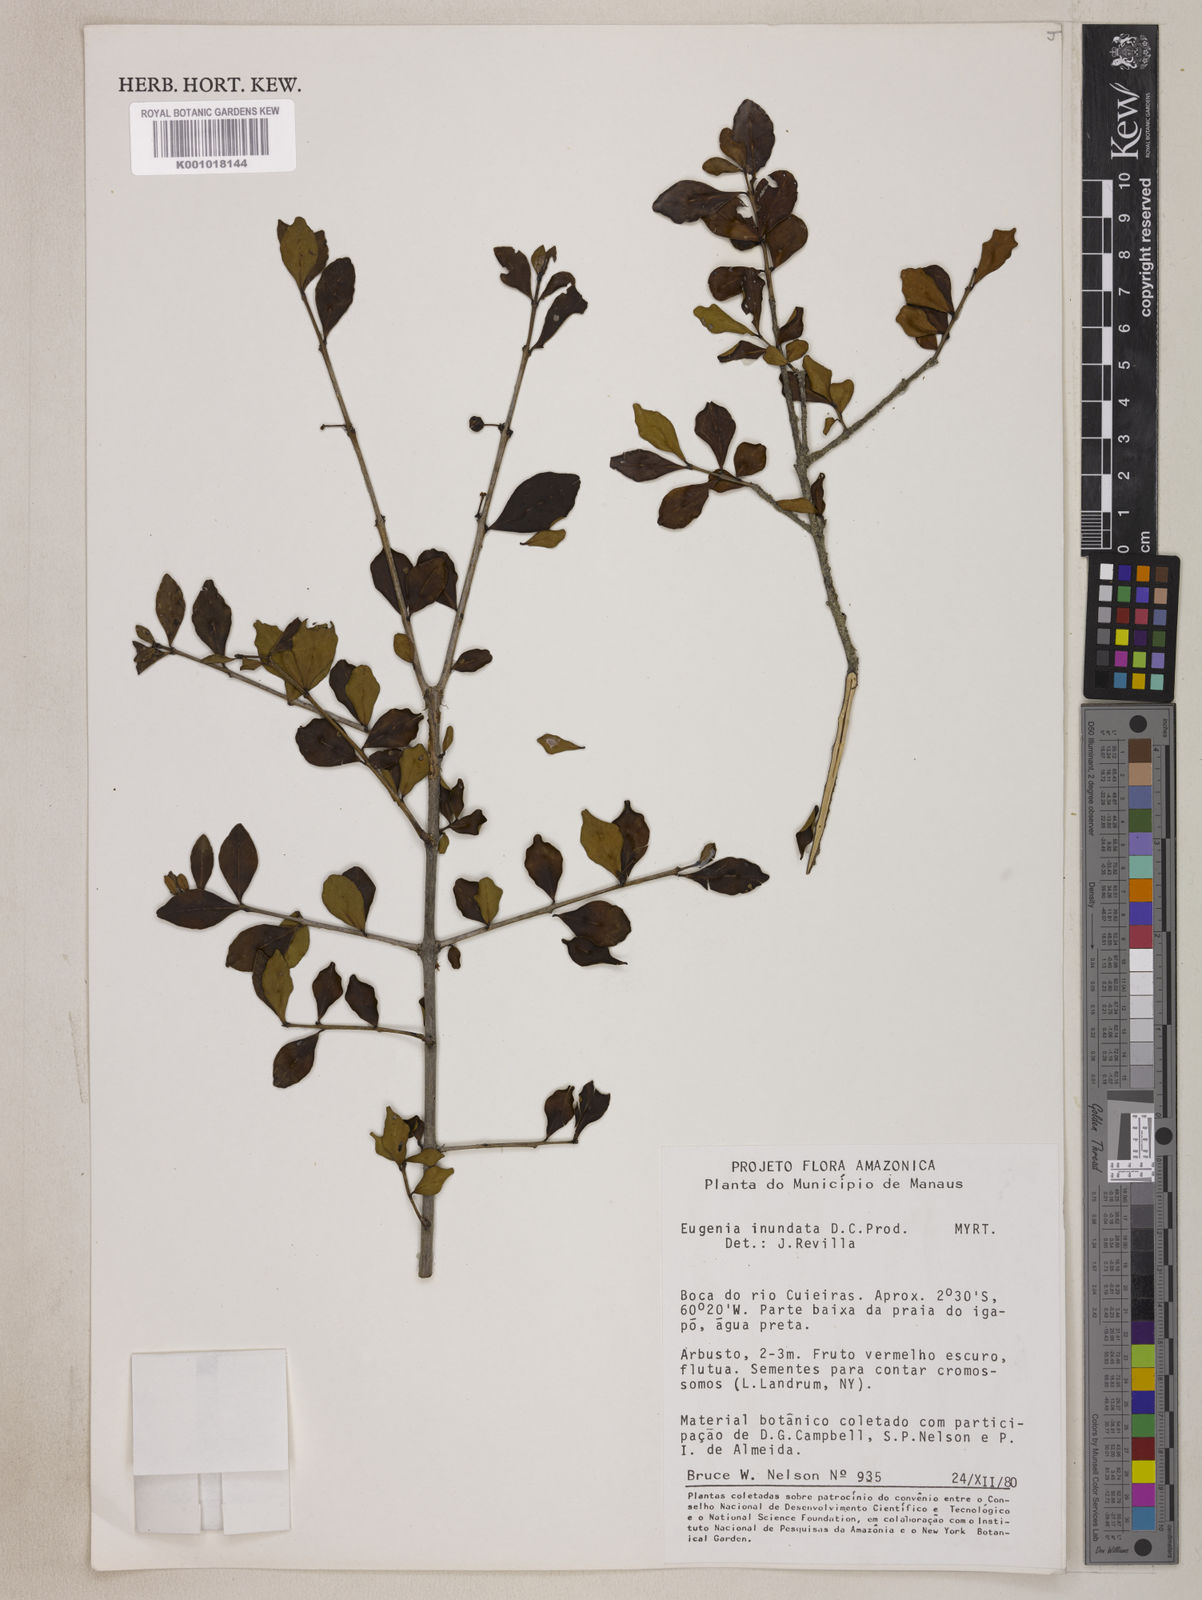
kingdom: Plantae
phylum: Tracheophyta
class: Magnoliopsida
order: Myrtales
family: Myrtaceae
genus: Eugenia
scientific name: Eugenia inundata
